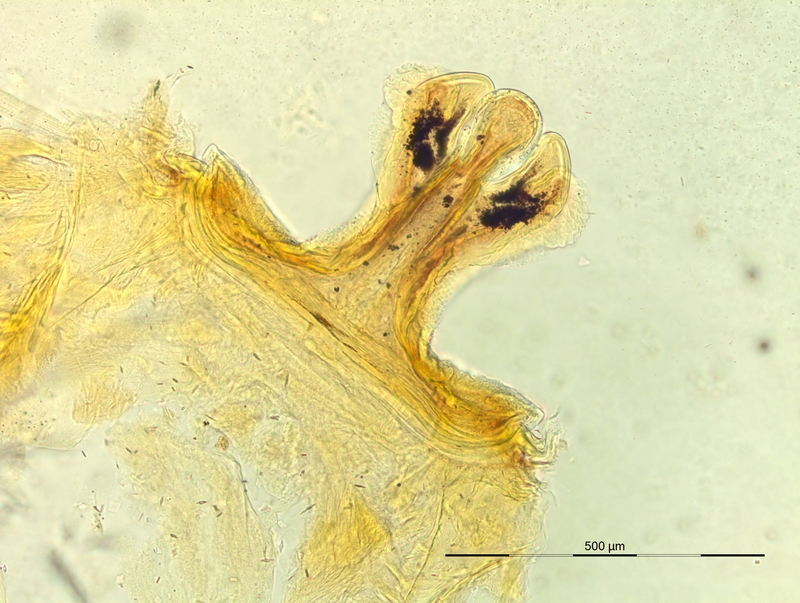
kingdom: Animalia
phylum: Arthropoda
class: Diplopoda
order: Chordeumatida
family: Craspedosomatidae
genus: Pyrgocyphosoma
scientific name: Pyrgocyphosoma oppidicola
